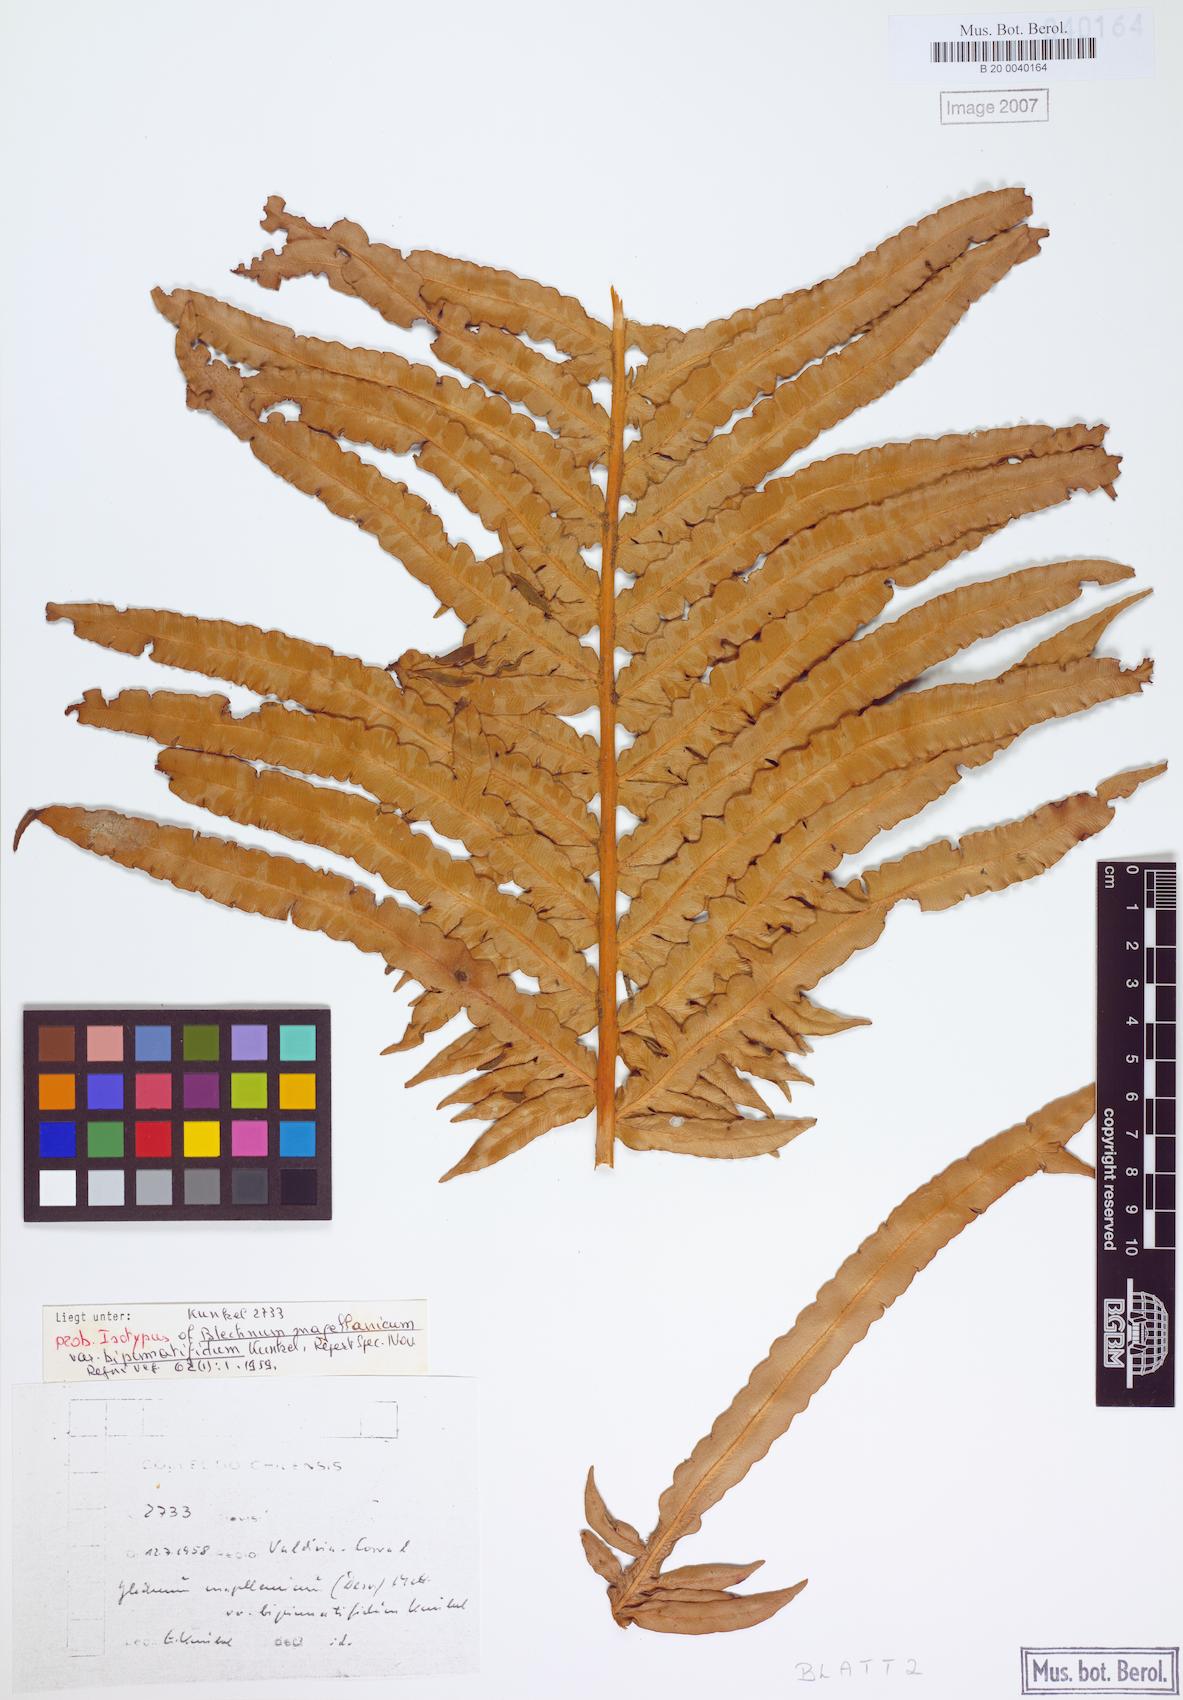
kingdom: Plantae
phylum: Tracheophyta
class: Polypodiopsida
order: Polypodiales
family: Blechnaceae
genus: Lomariocycas
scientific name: Lomariocycas magellanica
